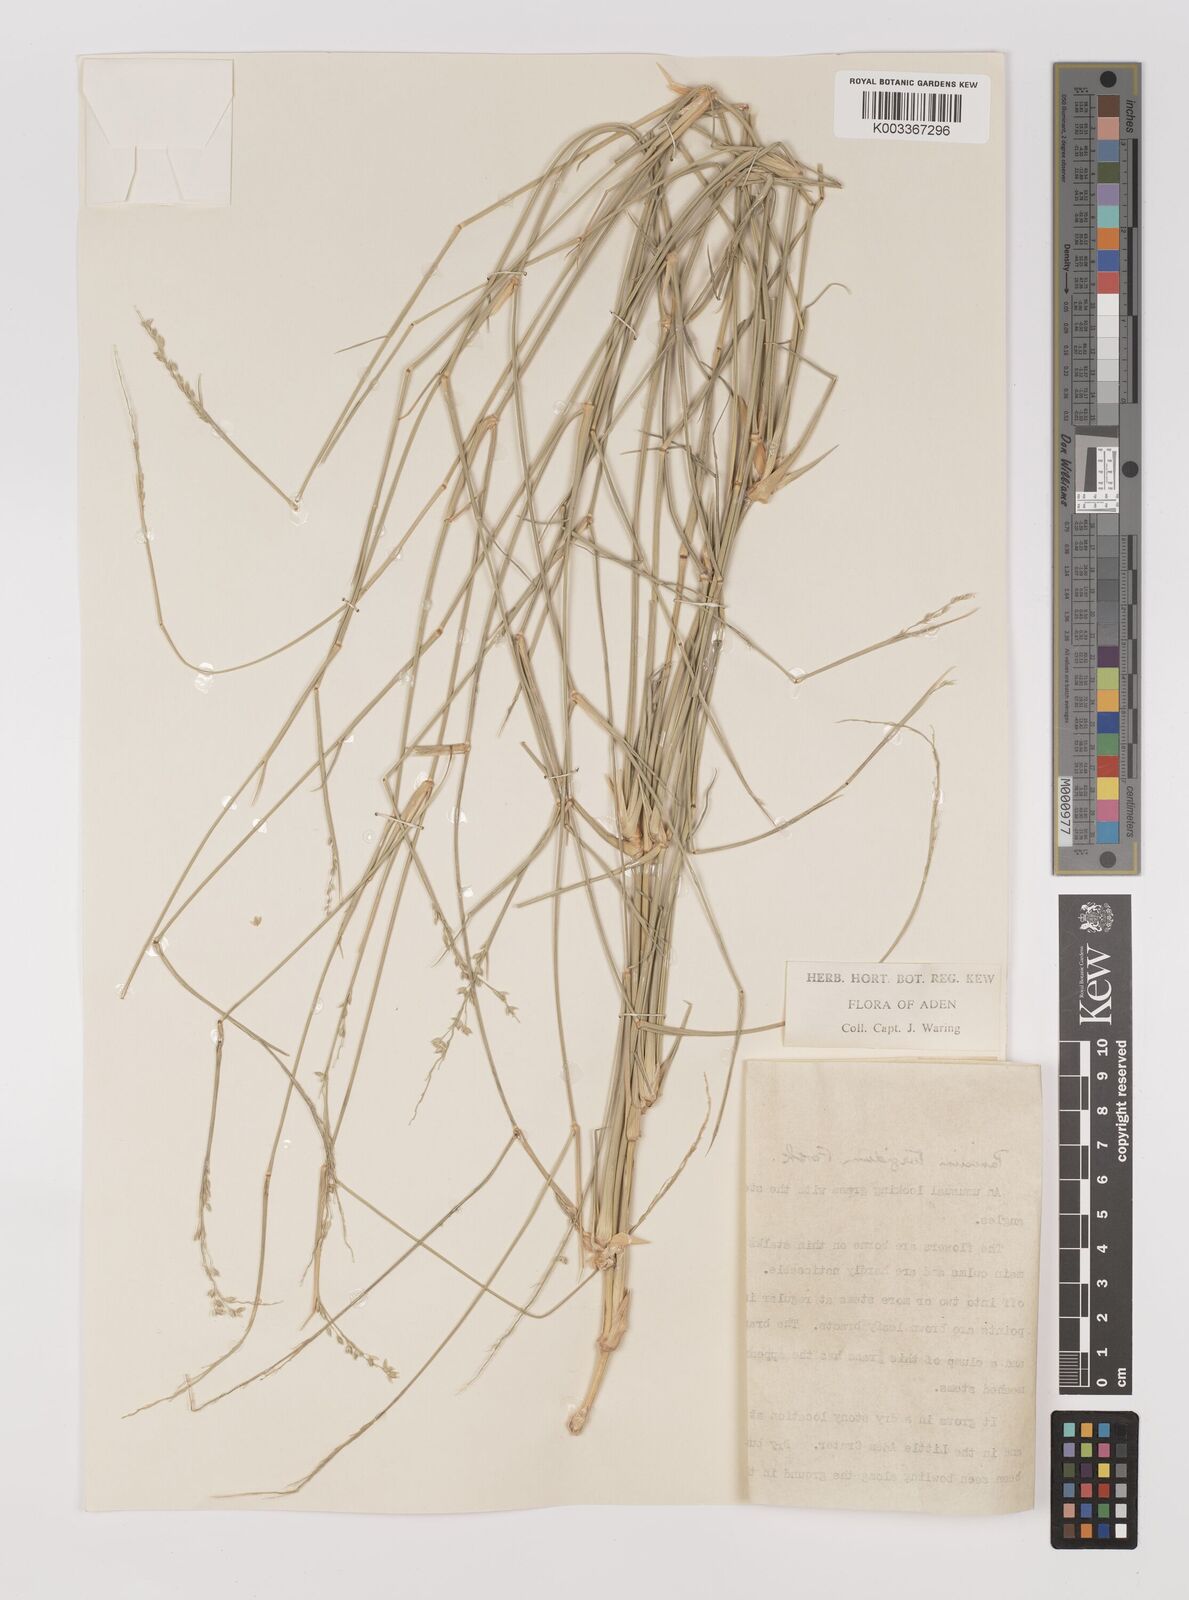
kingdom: Plantae
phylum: Tracheophyta
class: Liliopsida
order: Poales
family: Poaceae
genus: Panicum
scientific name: Panicum turgidum
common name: Desert grass
